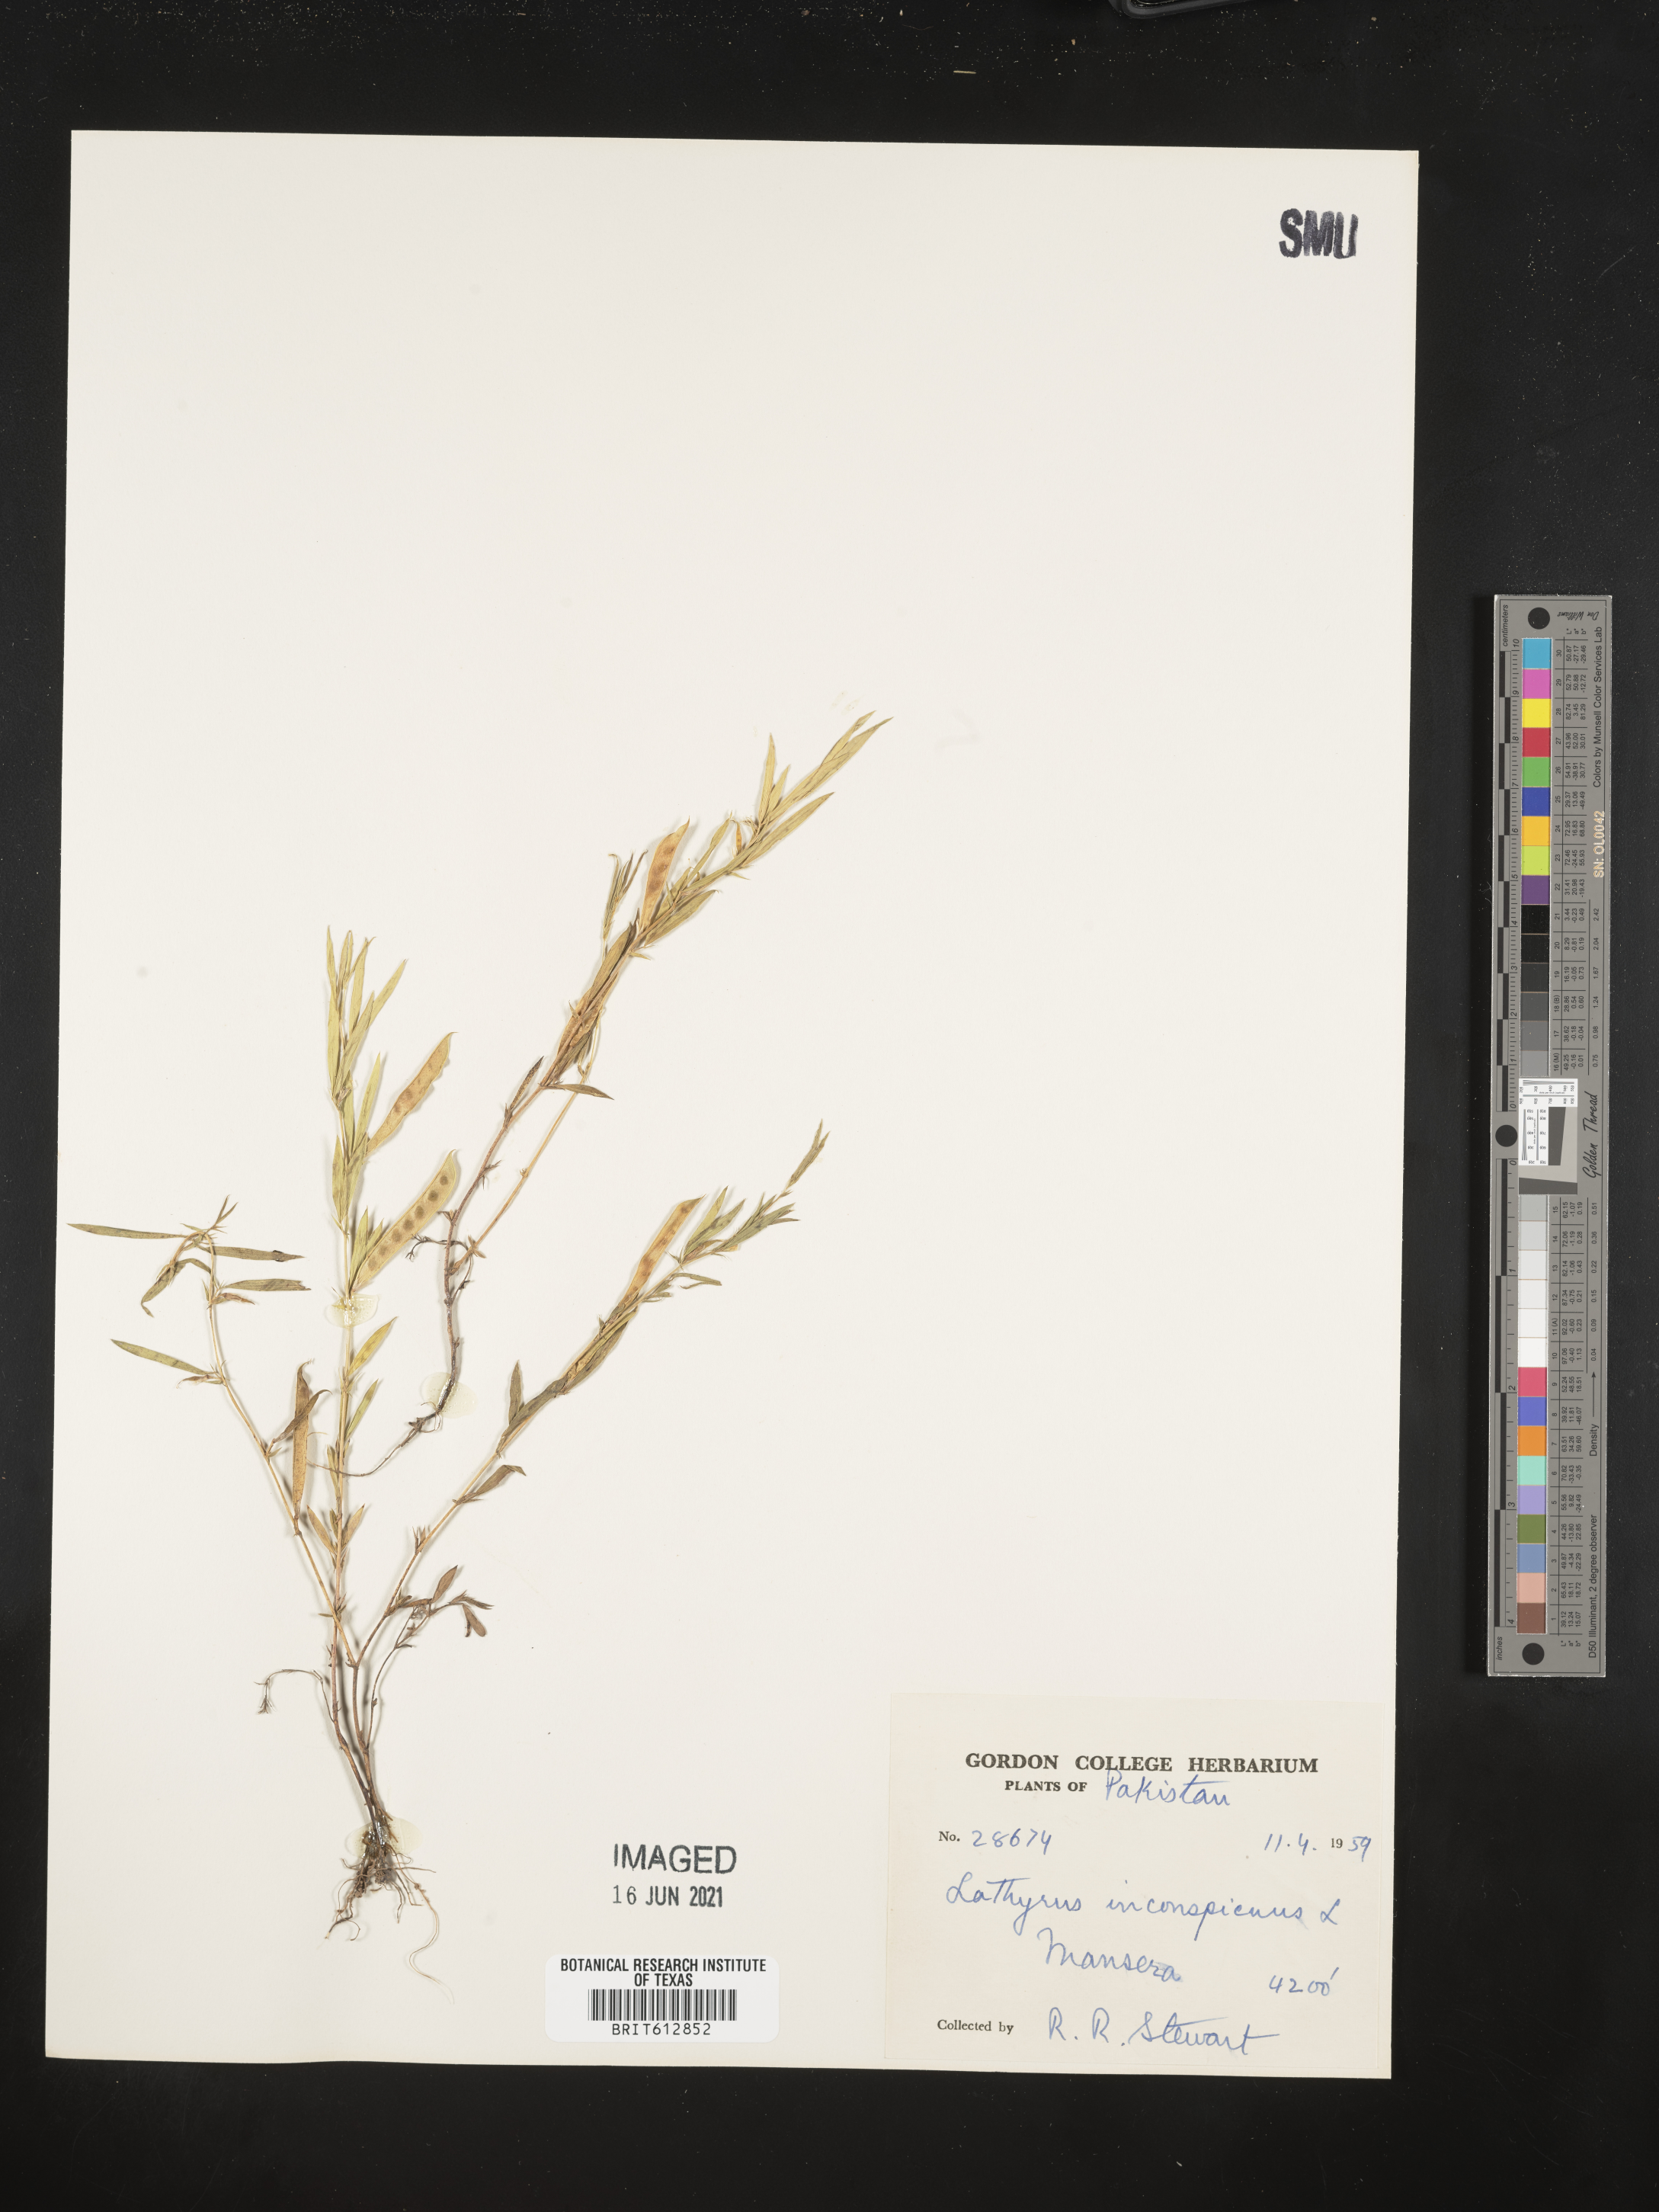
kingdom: Plantae
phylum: Tracheophyta
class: Magnoliopsida
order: Fabales
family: Fabaceae
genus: Lathyrus
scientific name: Lathyrus inconspicuus
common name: Inconspicuous pea
